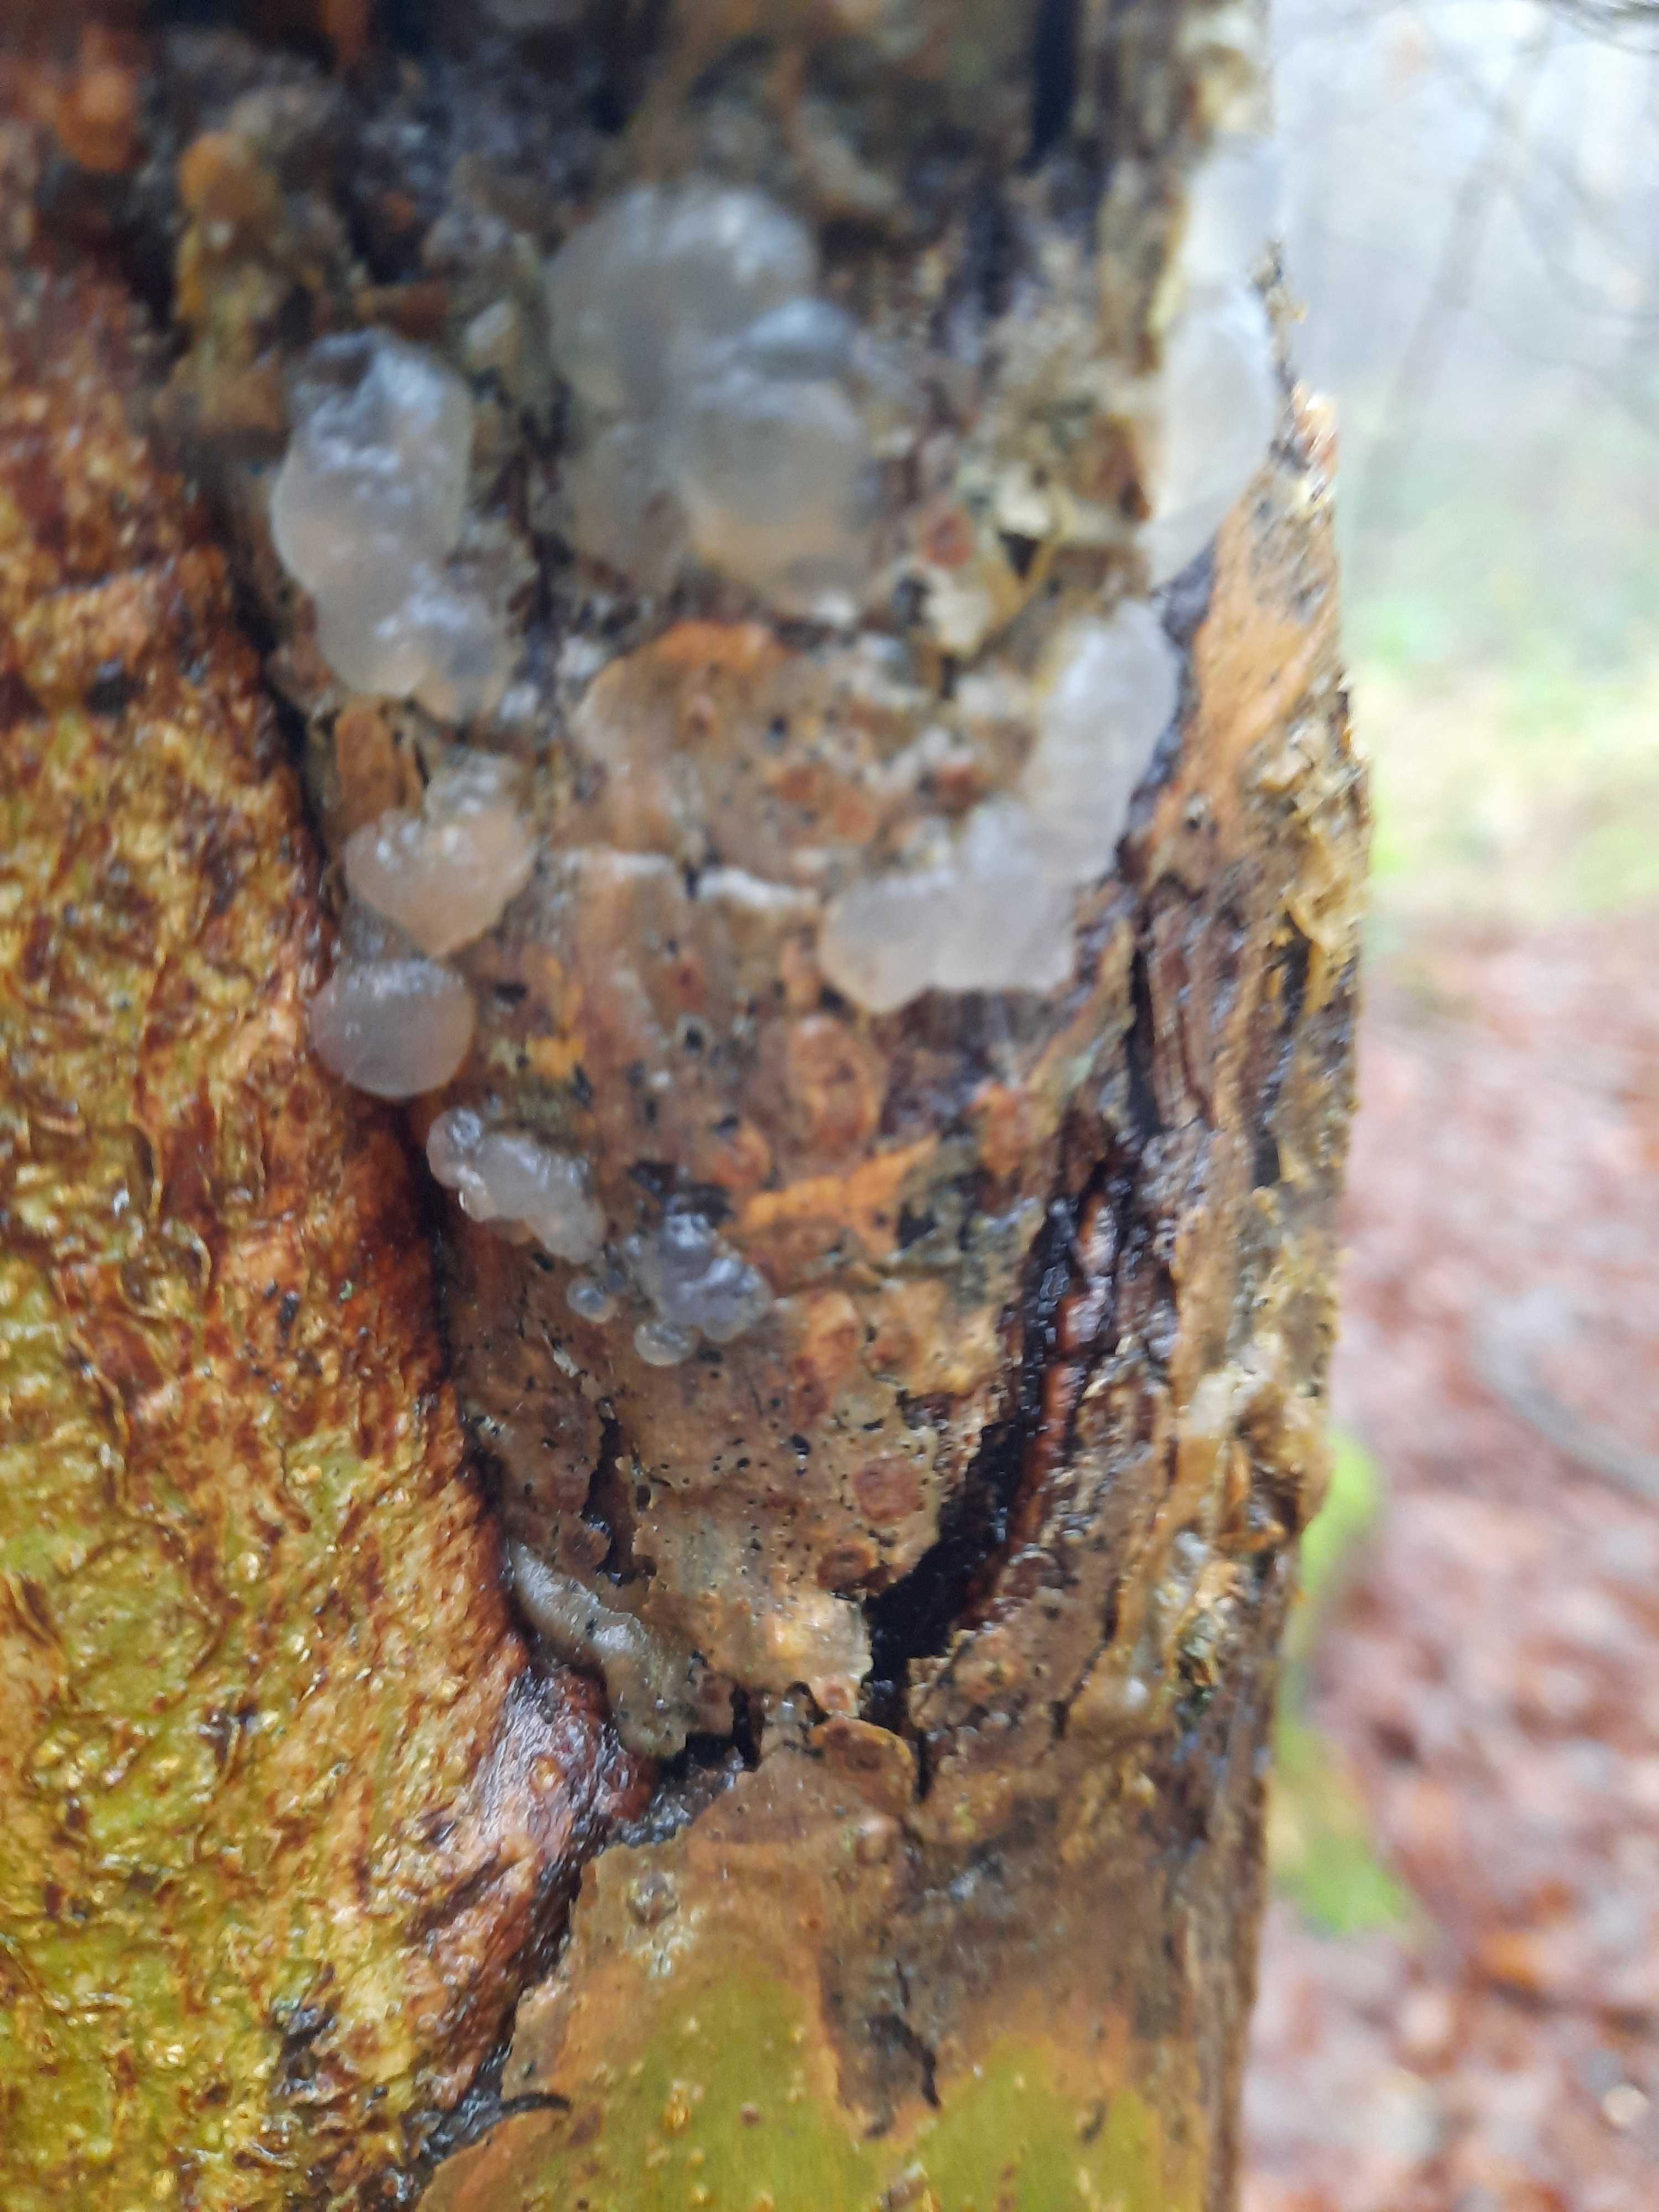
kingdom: Fungi
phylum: Basidiomycota
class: Agaricomycetes
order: Auriculariales
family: Hyaloriaceae
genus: Myxarium
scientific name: Myxarium nucleatum
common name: klar bævretop
